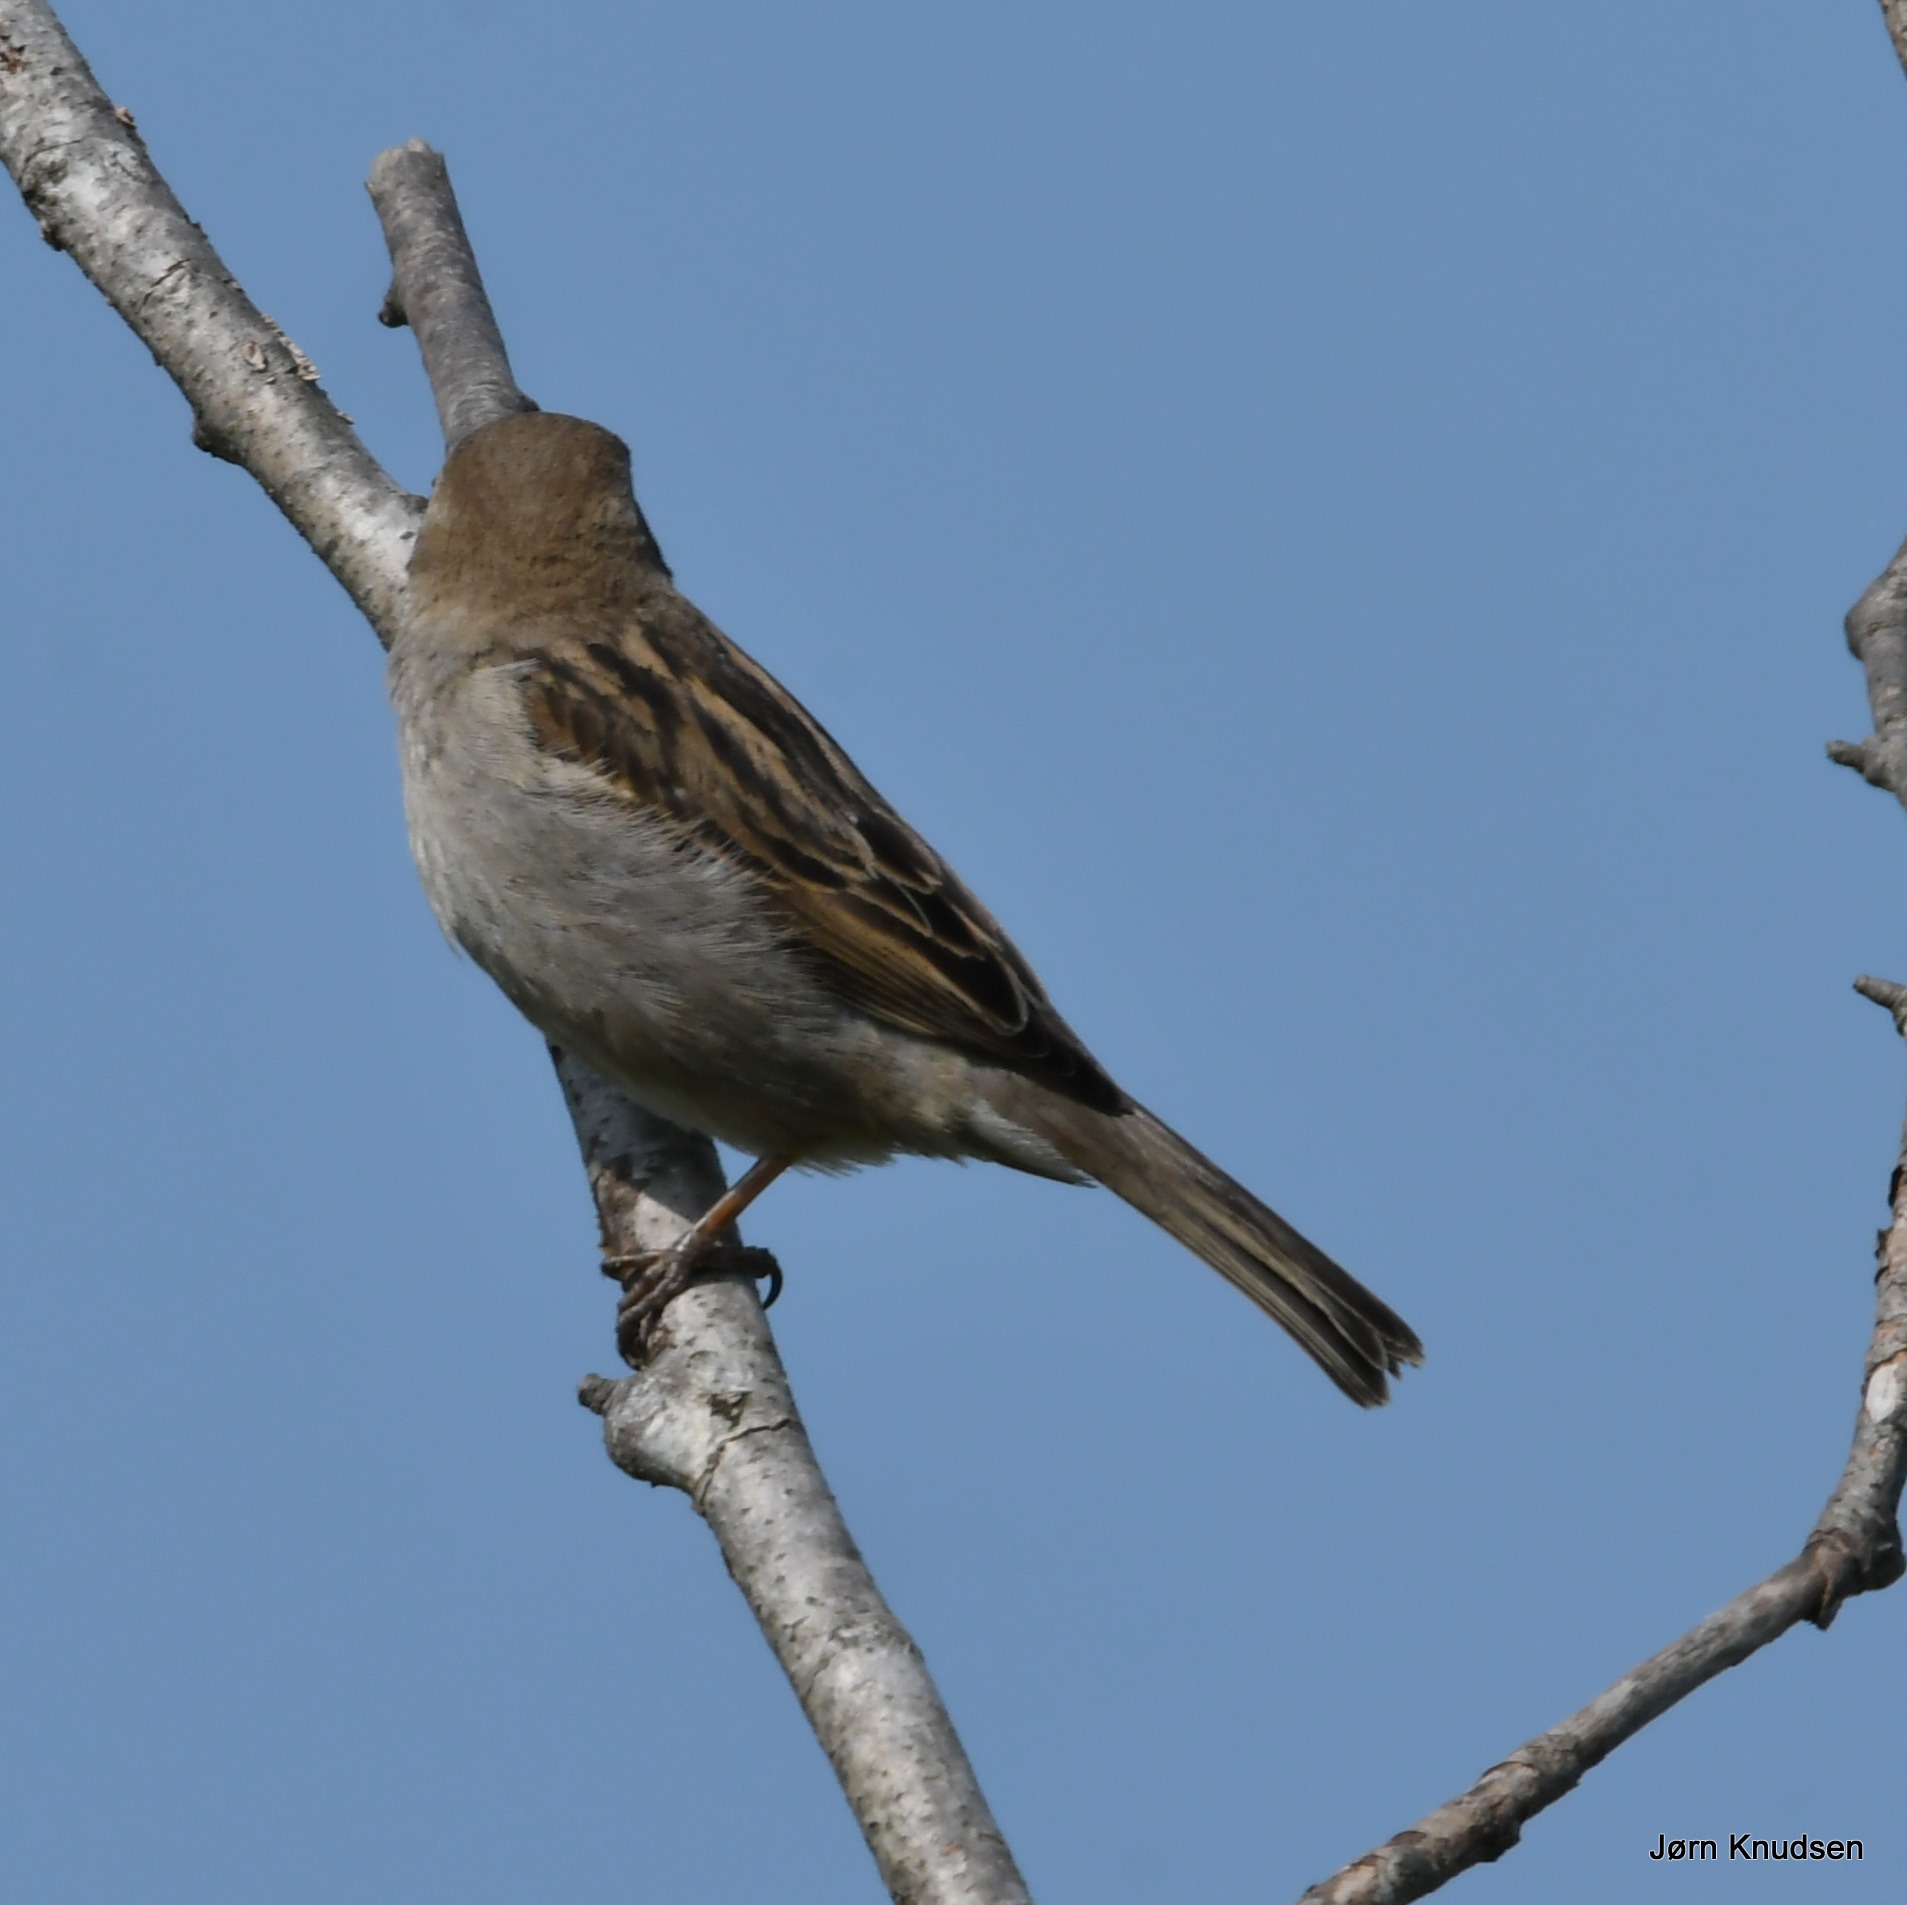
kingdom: Animalia
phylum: Chordata
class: Aves
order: Passeriformes
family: Passeridae
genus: Passer
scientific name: Passer domesticus
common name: Gråspurv
